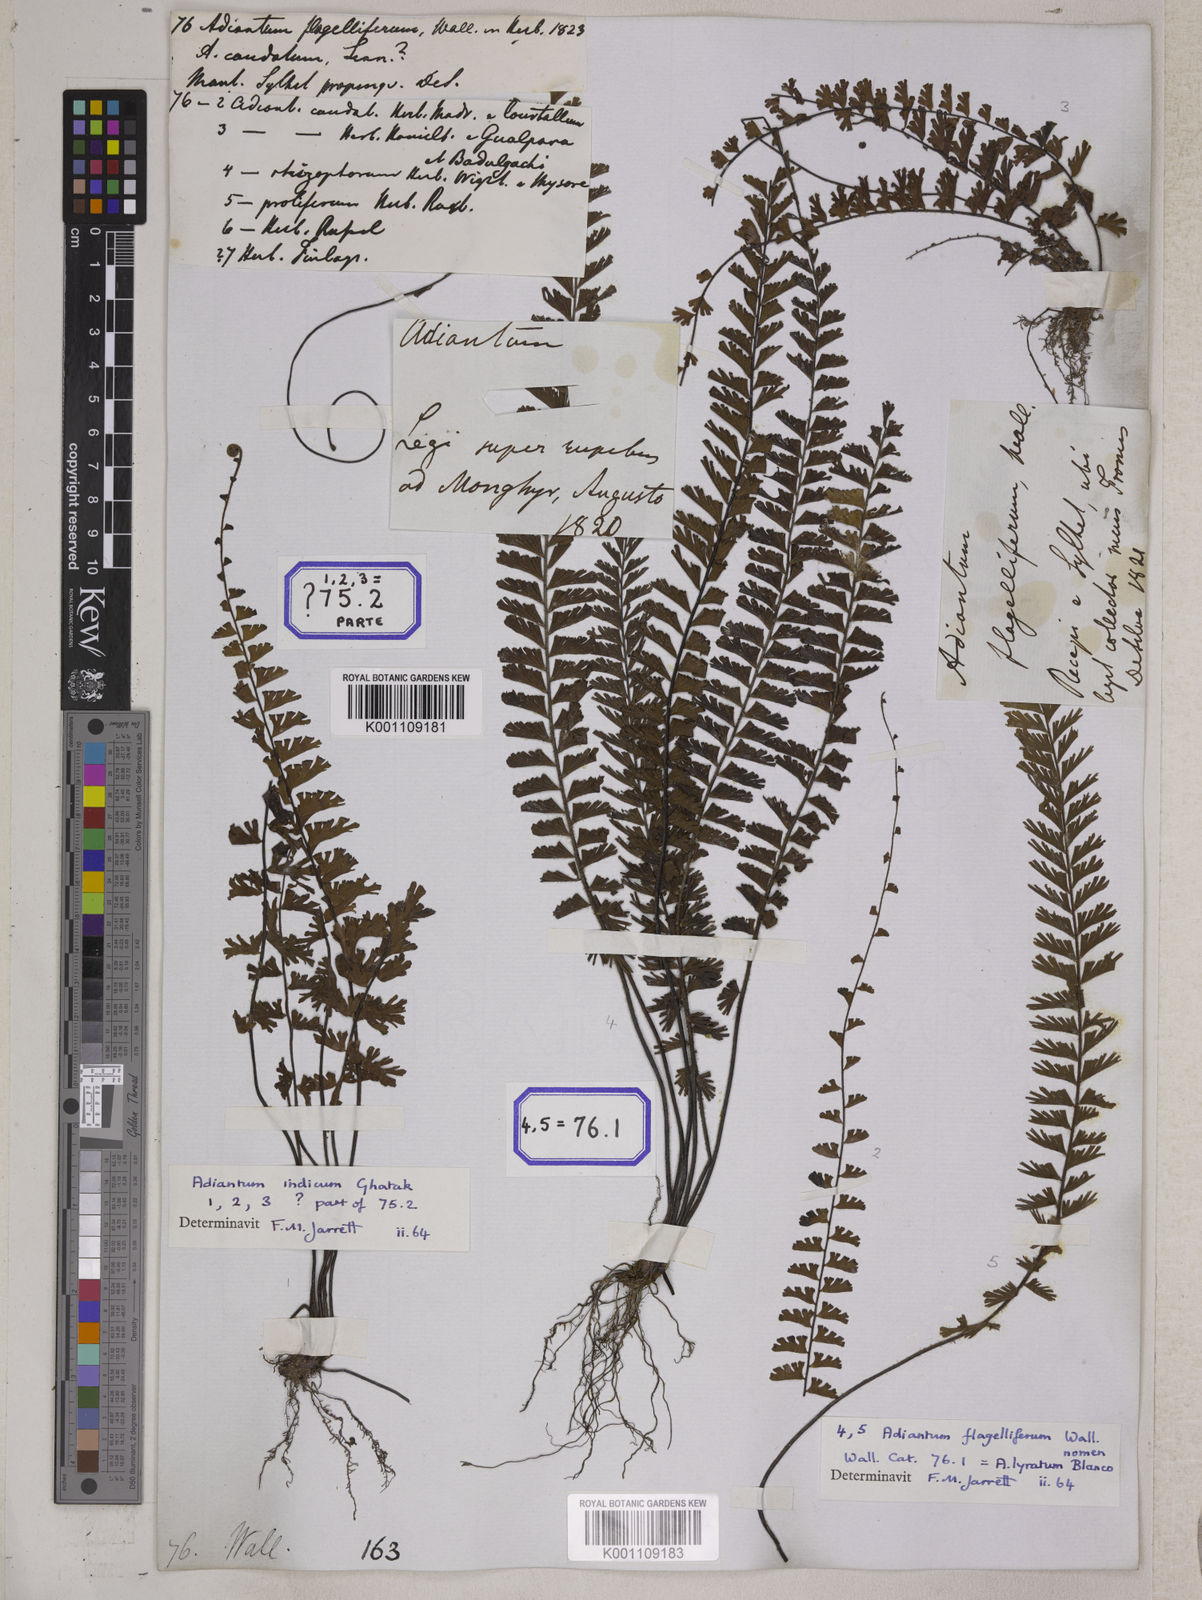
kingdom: Plantae
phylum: Tracheophyta
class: Polypodiopsida
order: Polypodiales
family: Pteridaceae
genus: Adiantum
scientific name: Adiantum incisum
